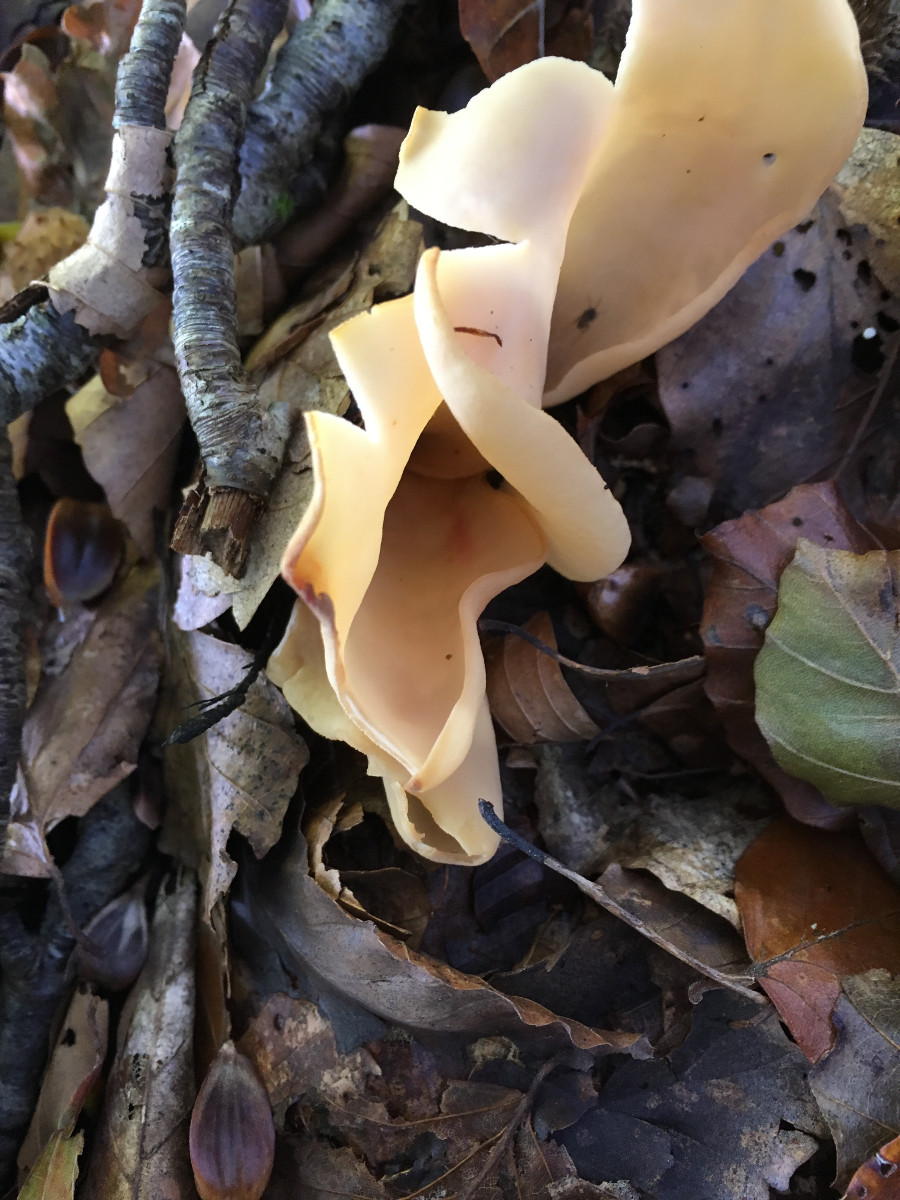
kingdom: Fungi
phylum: Ascomycota
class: Pezizomycetes
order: Pezizales
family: Otideaceae
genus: Otidea
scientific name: Otidea onotica
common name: æsel-ørebæger
